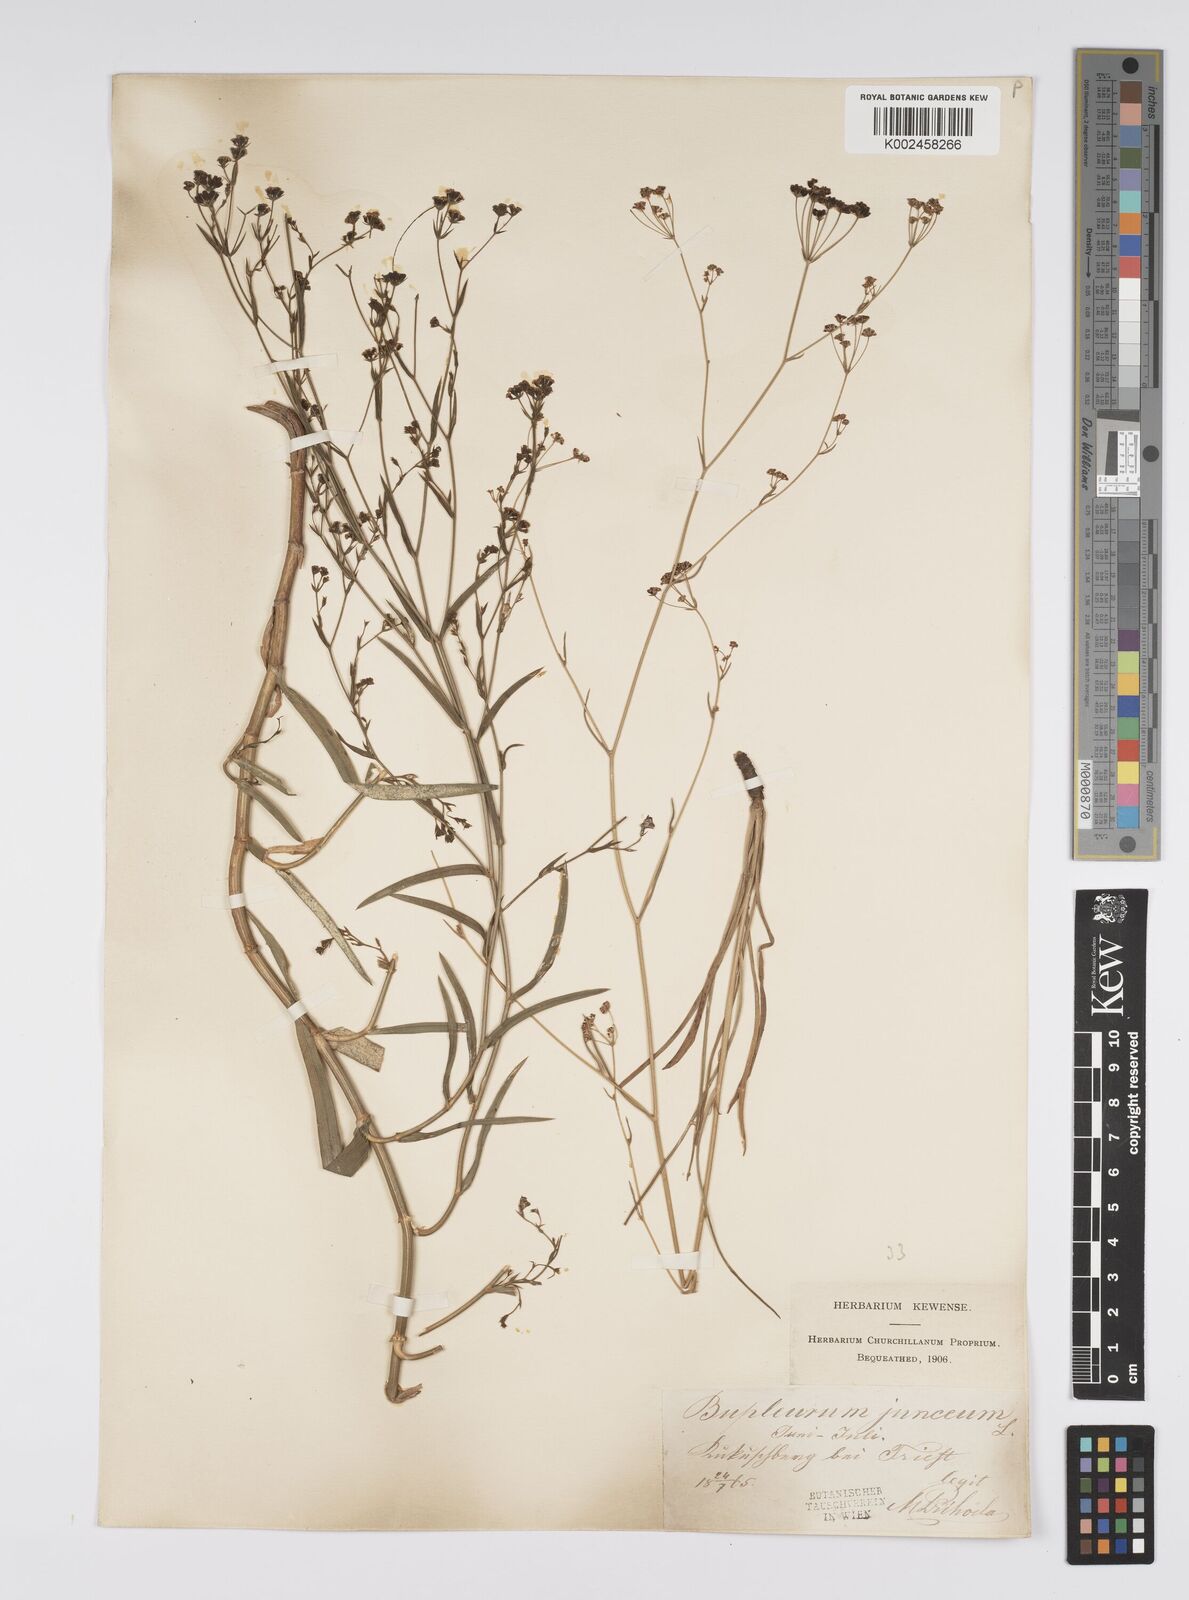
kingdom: Plantae
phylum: Tracheophyta
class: Magnoliopsida
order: Apiales
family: Apiaceae
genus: Bupleurum
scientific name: Bupleurum praealtum
